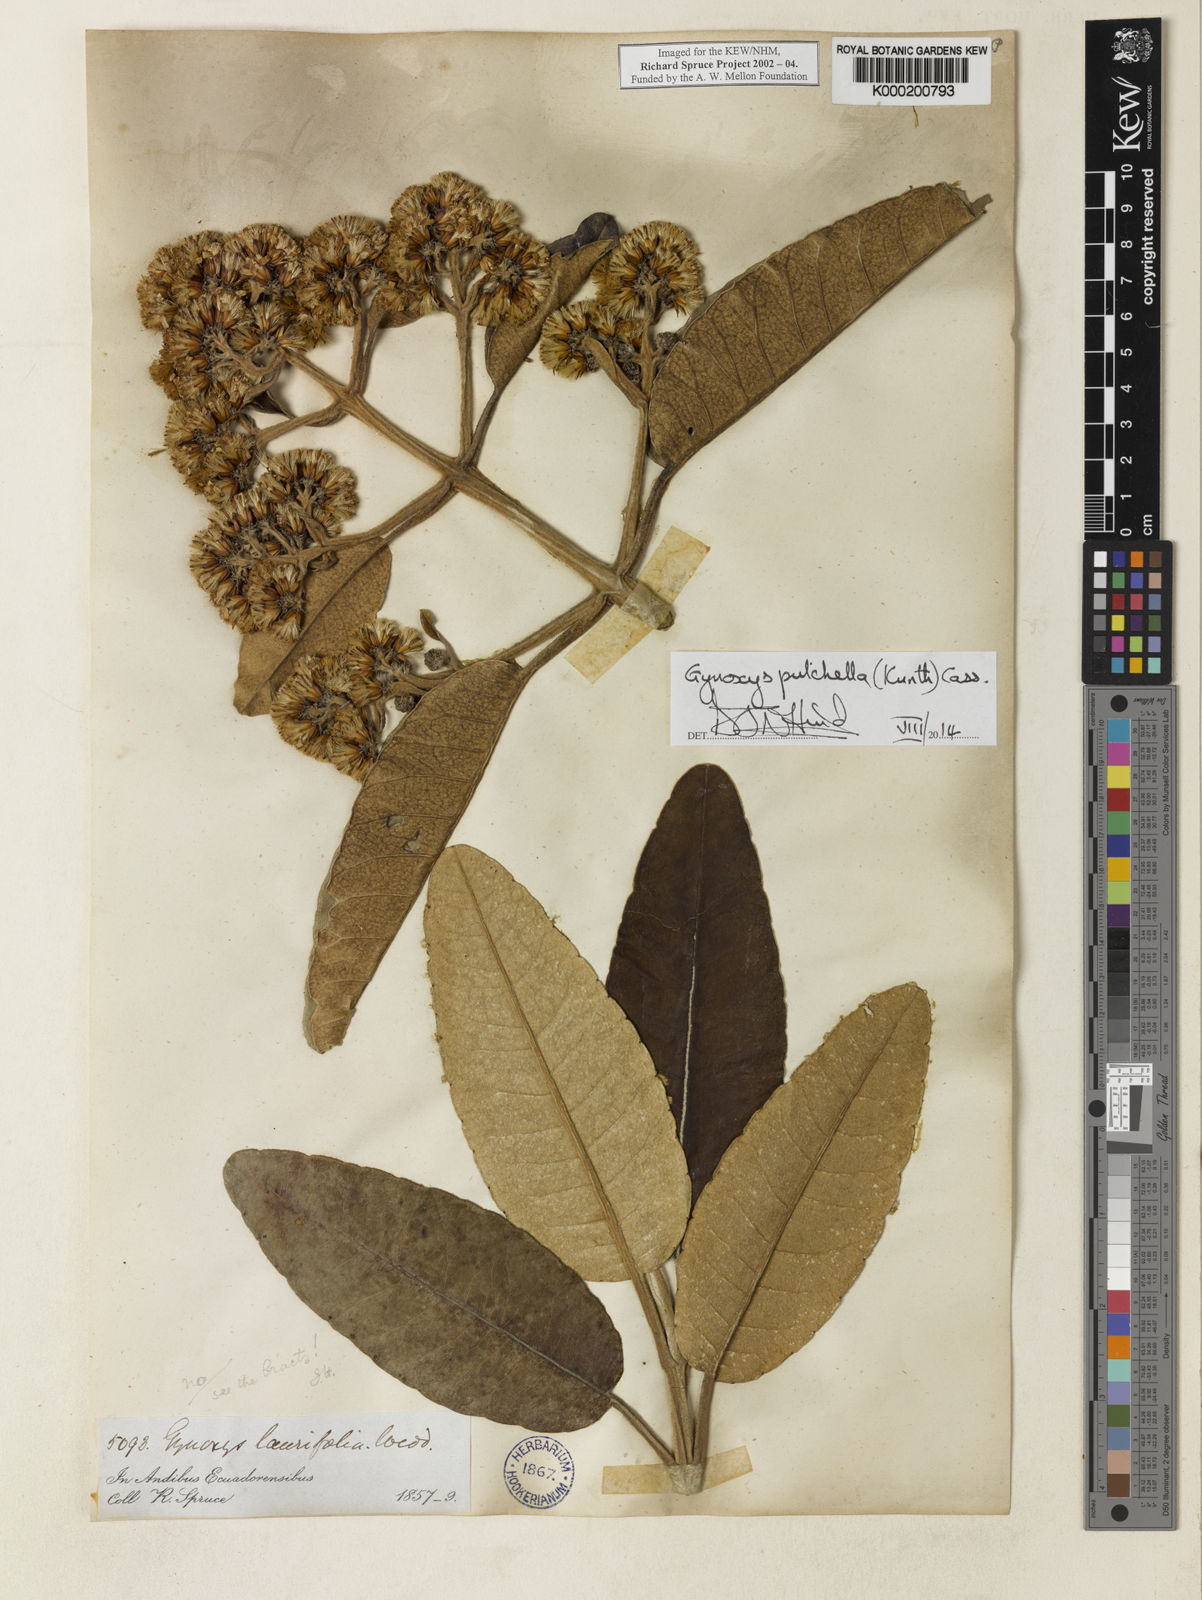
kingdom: Plantae
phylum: Tracheophyta
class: Magnoliopsida
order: Asterales
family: Asteraceae
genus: Gynoxys
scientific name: Gynoxys pulchella
